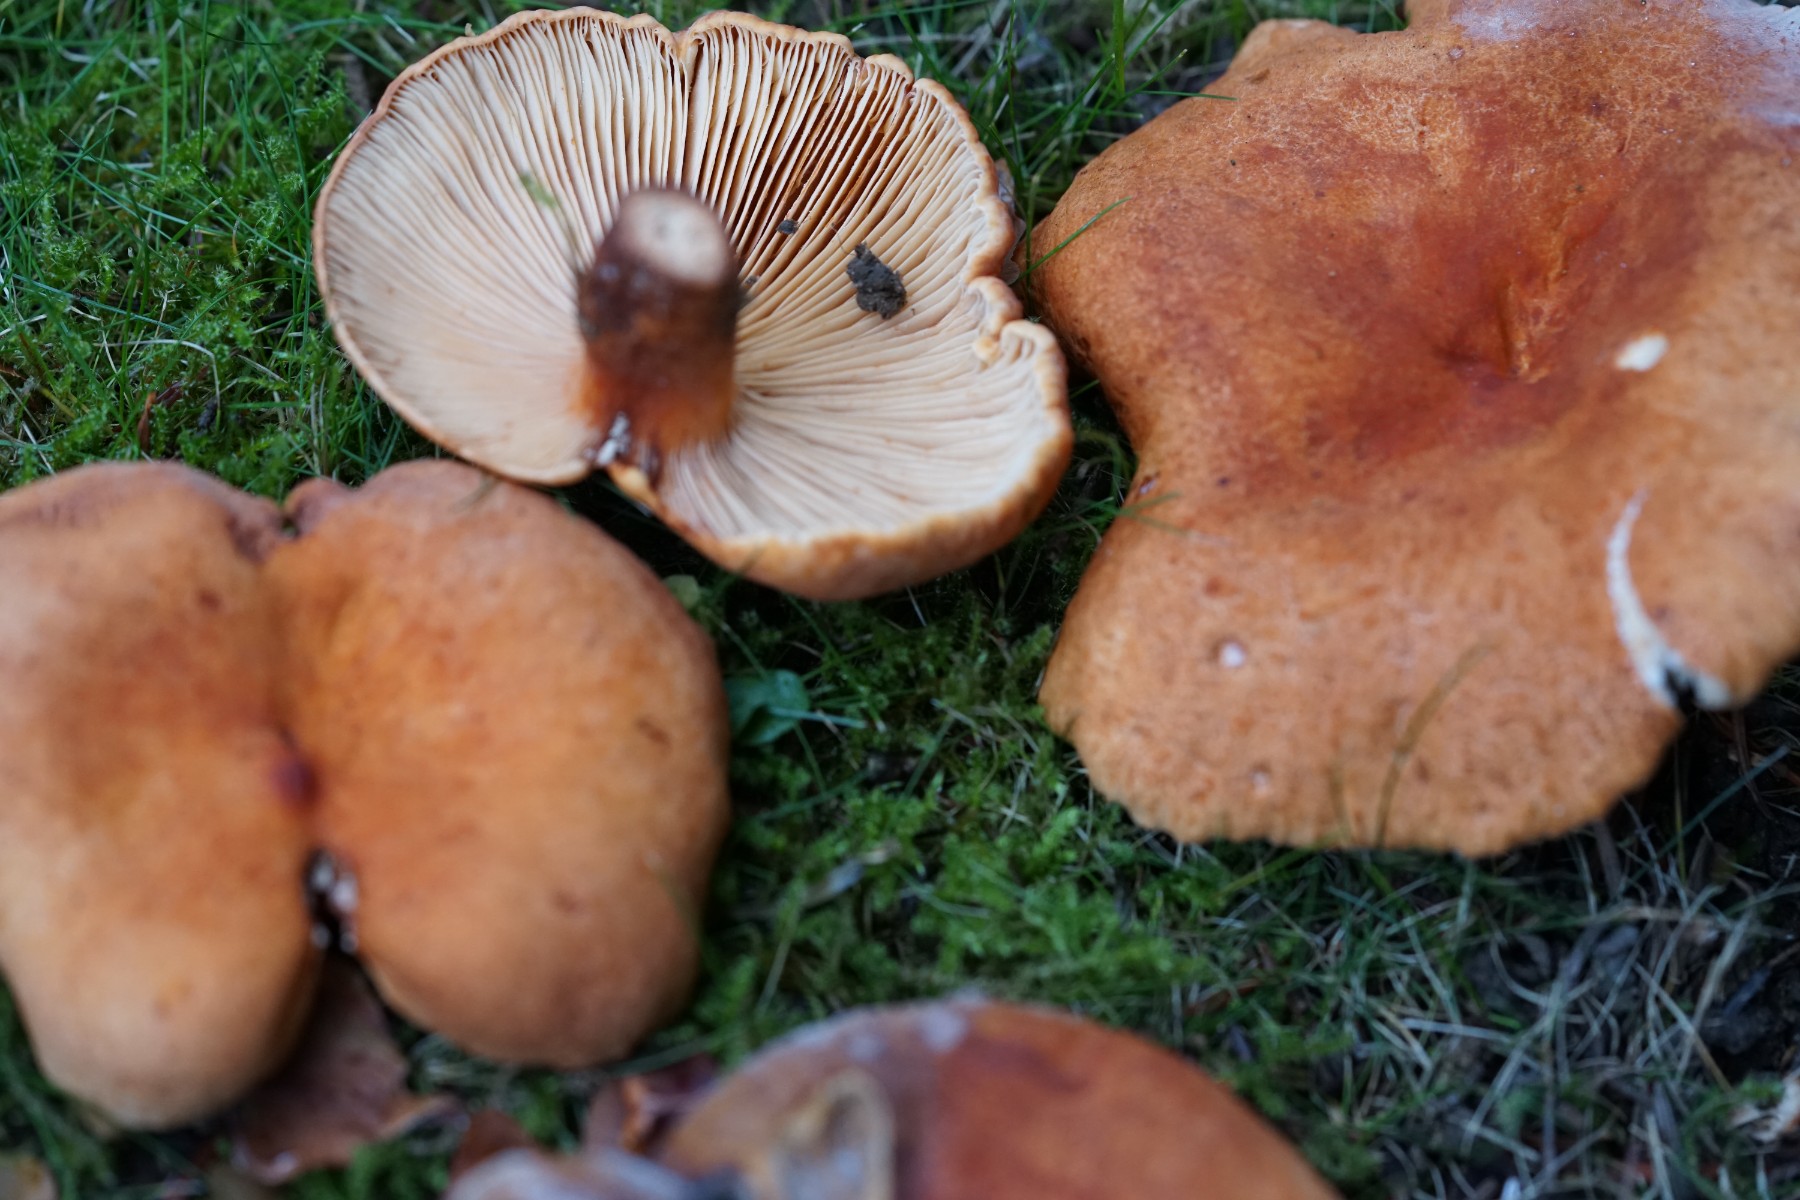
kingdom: Fungi
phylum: Basidiomycota
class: Agaricomycetes
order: Russulales
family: Russulaceae
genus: Lactifluus
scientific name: Lactifluus volemus
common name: spiselig mælkehat
